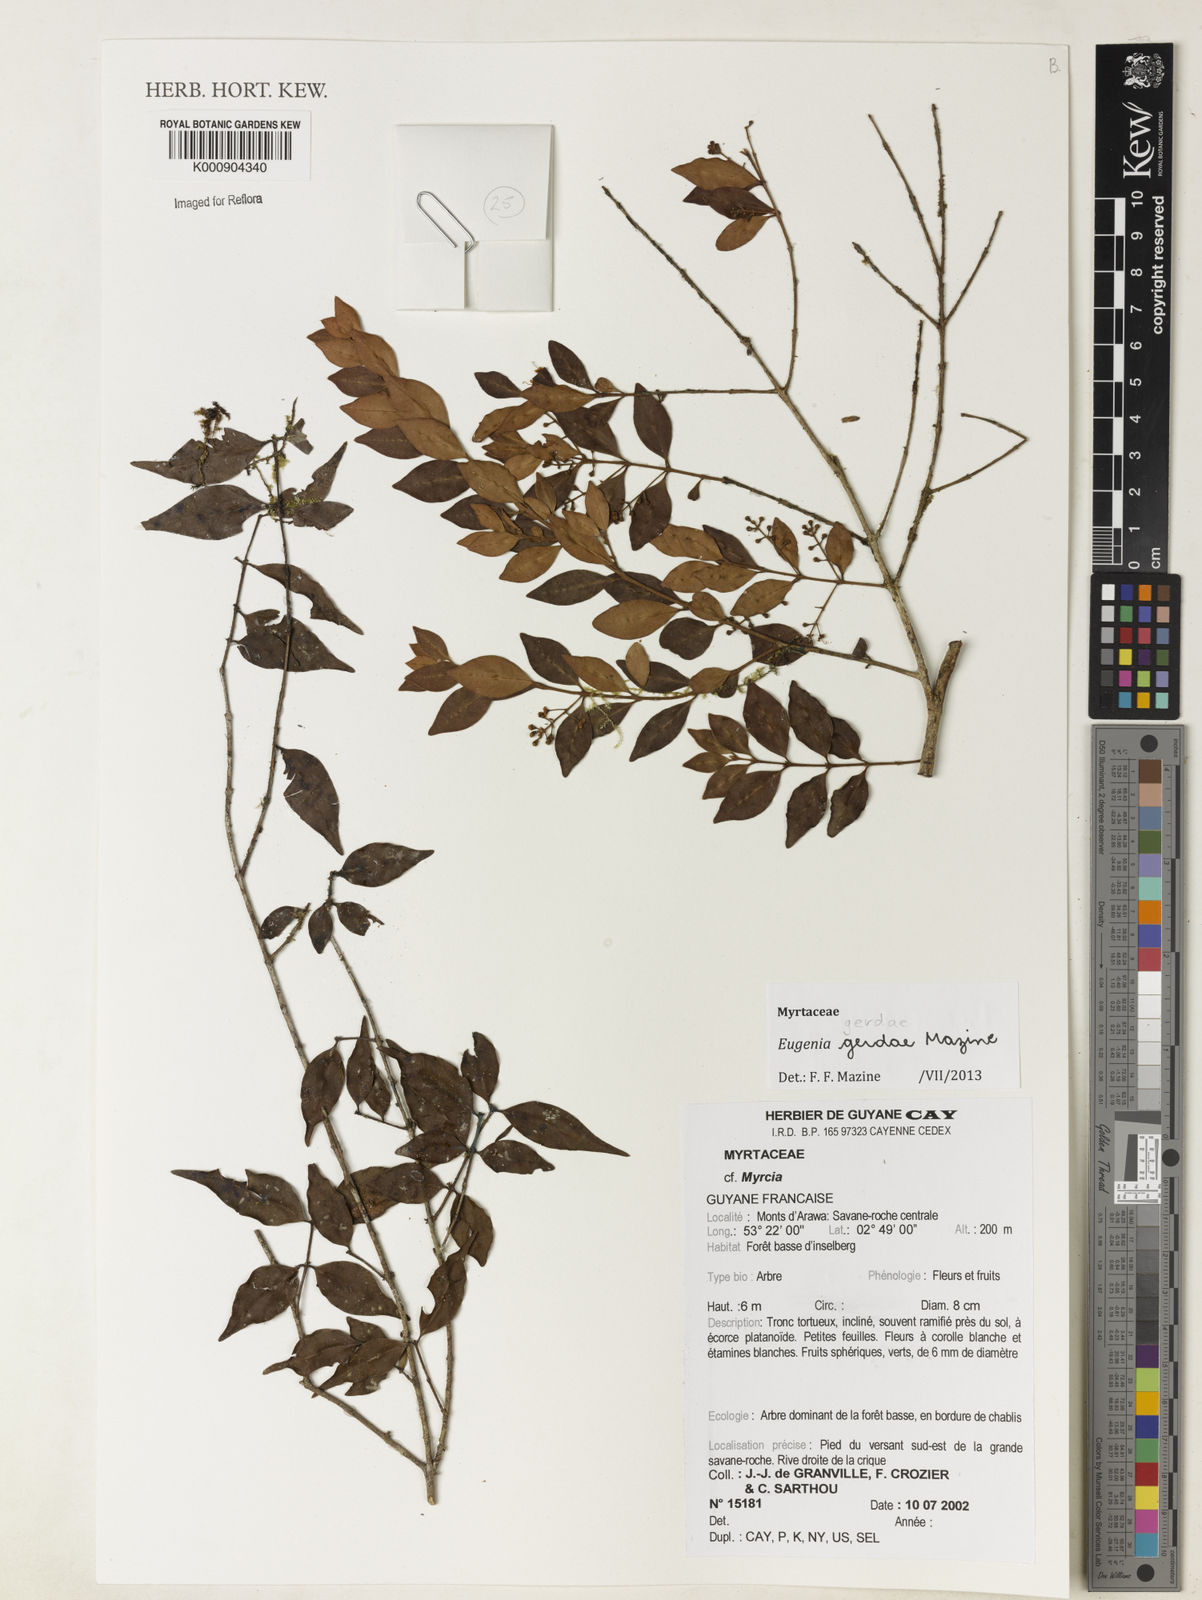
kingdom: Plantae
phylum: Tracheophyta
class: Magnoliopsida
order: Myrtales
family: Myrtaceae
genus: Eugenia
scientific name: Eugenia gerdae
